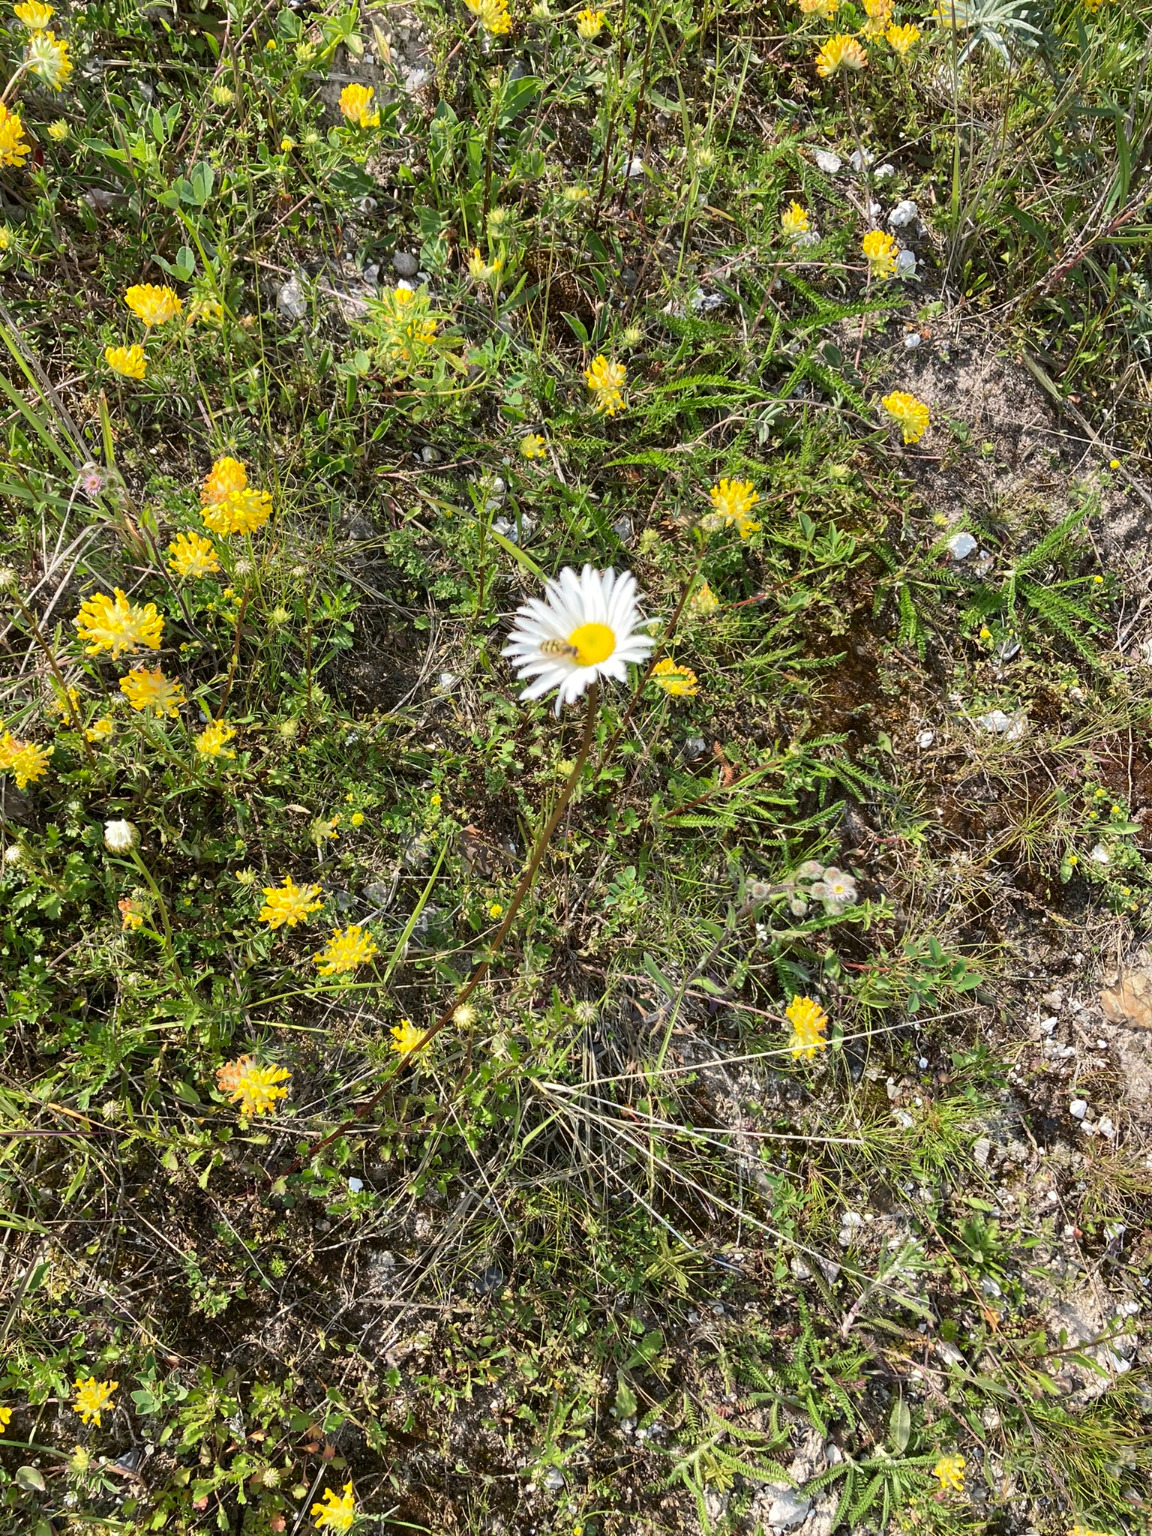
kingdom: Plantae
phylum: Tracheophyta
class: Magnoliopsida
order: Asterales
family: Asteraceae
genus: Leucanthemum
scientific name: Leucanthemum vulgare
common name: Hvid okseøje
